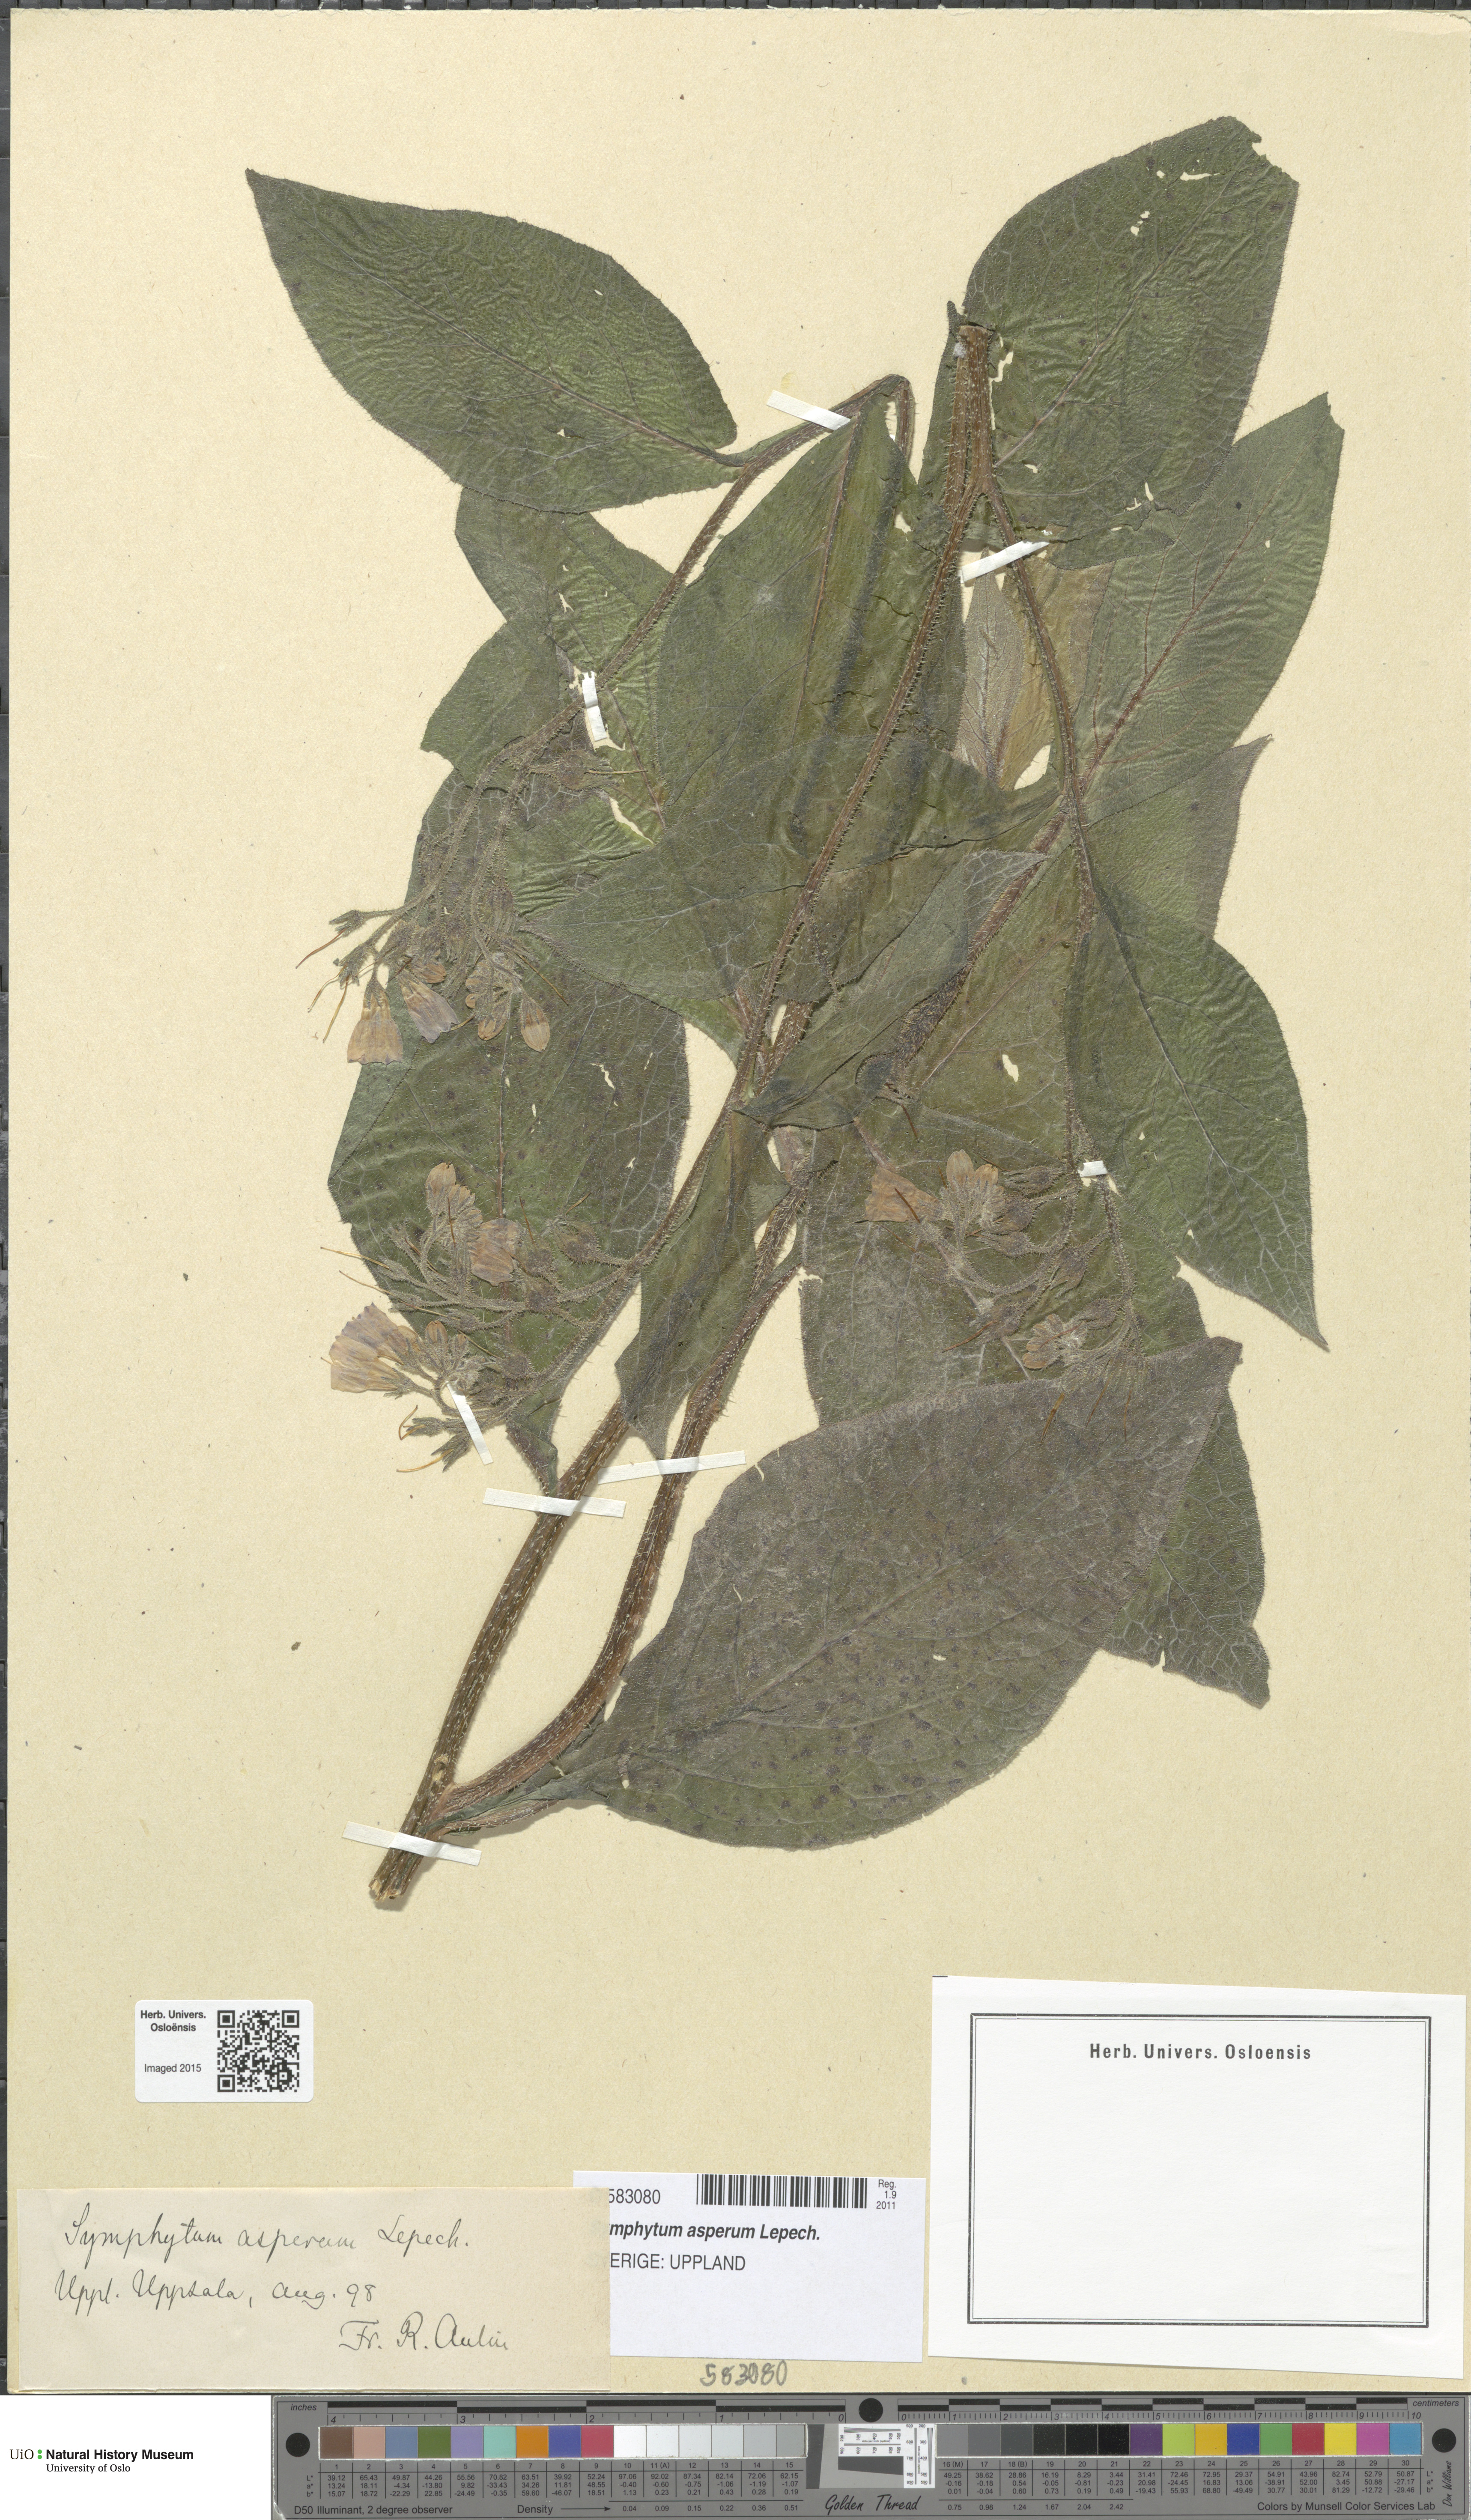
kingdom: Plantae
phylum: Tracheophyta
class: Magnoliopsida
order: Boraginales
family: Boraginaceae
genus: Symphytum
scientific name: Symphytum asperum
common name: Prickly comfrey
